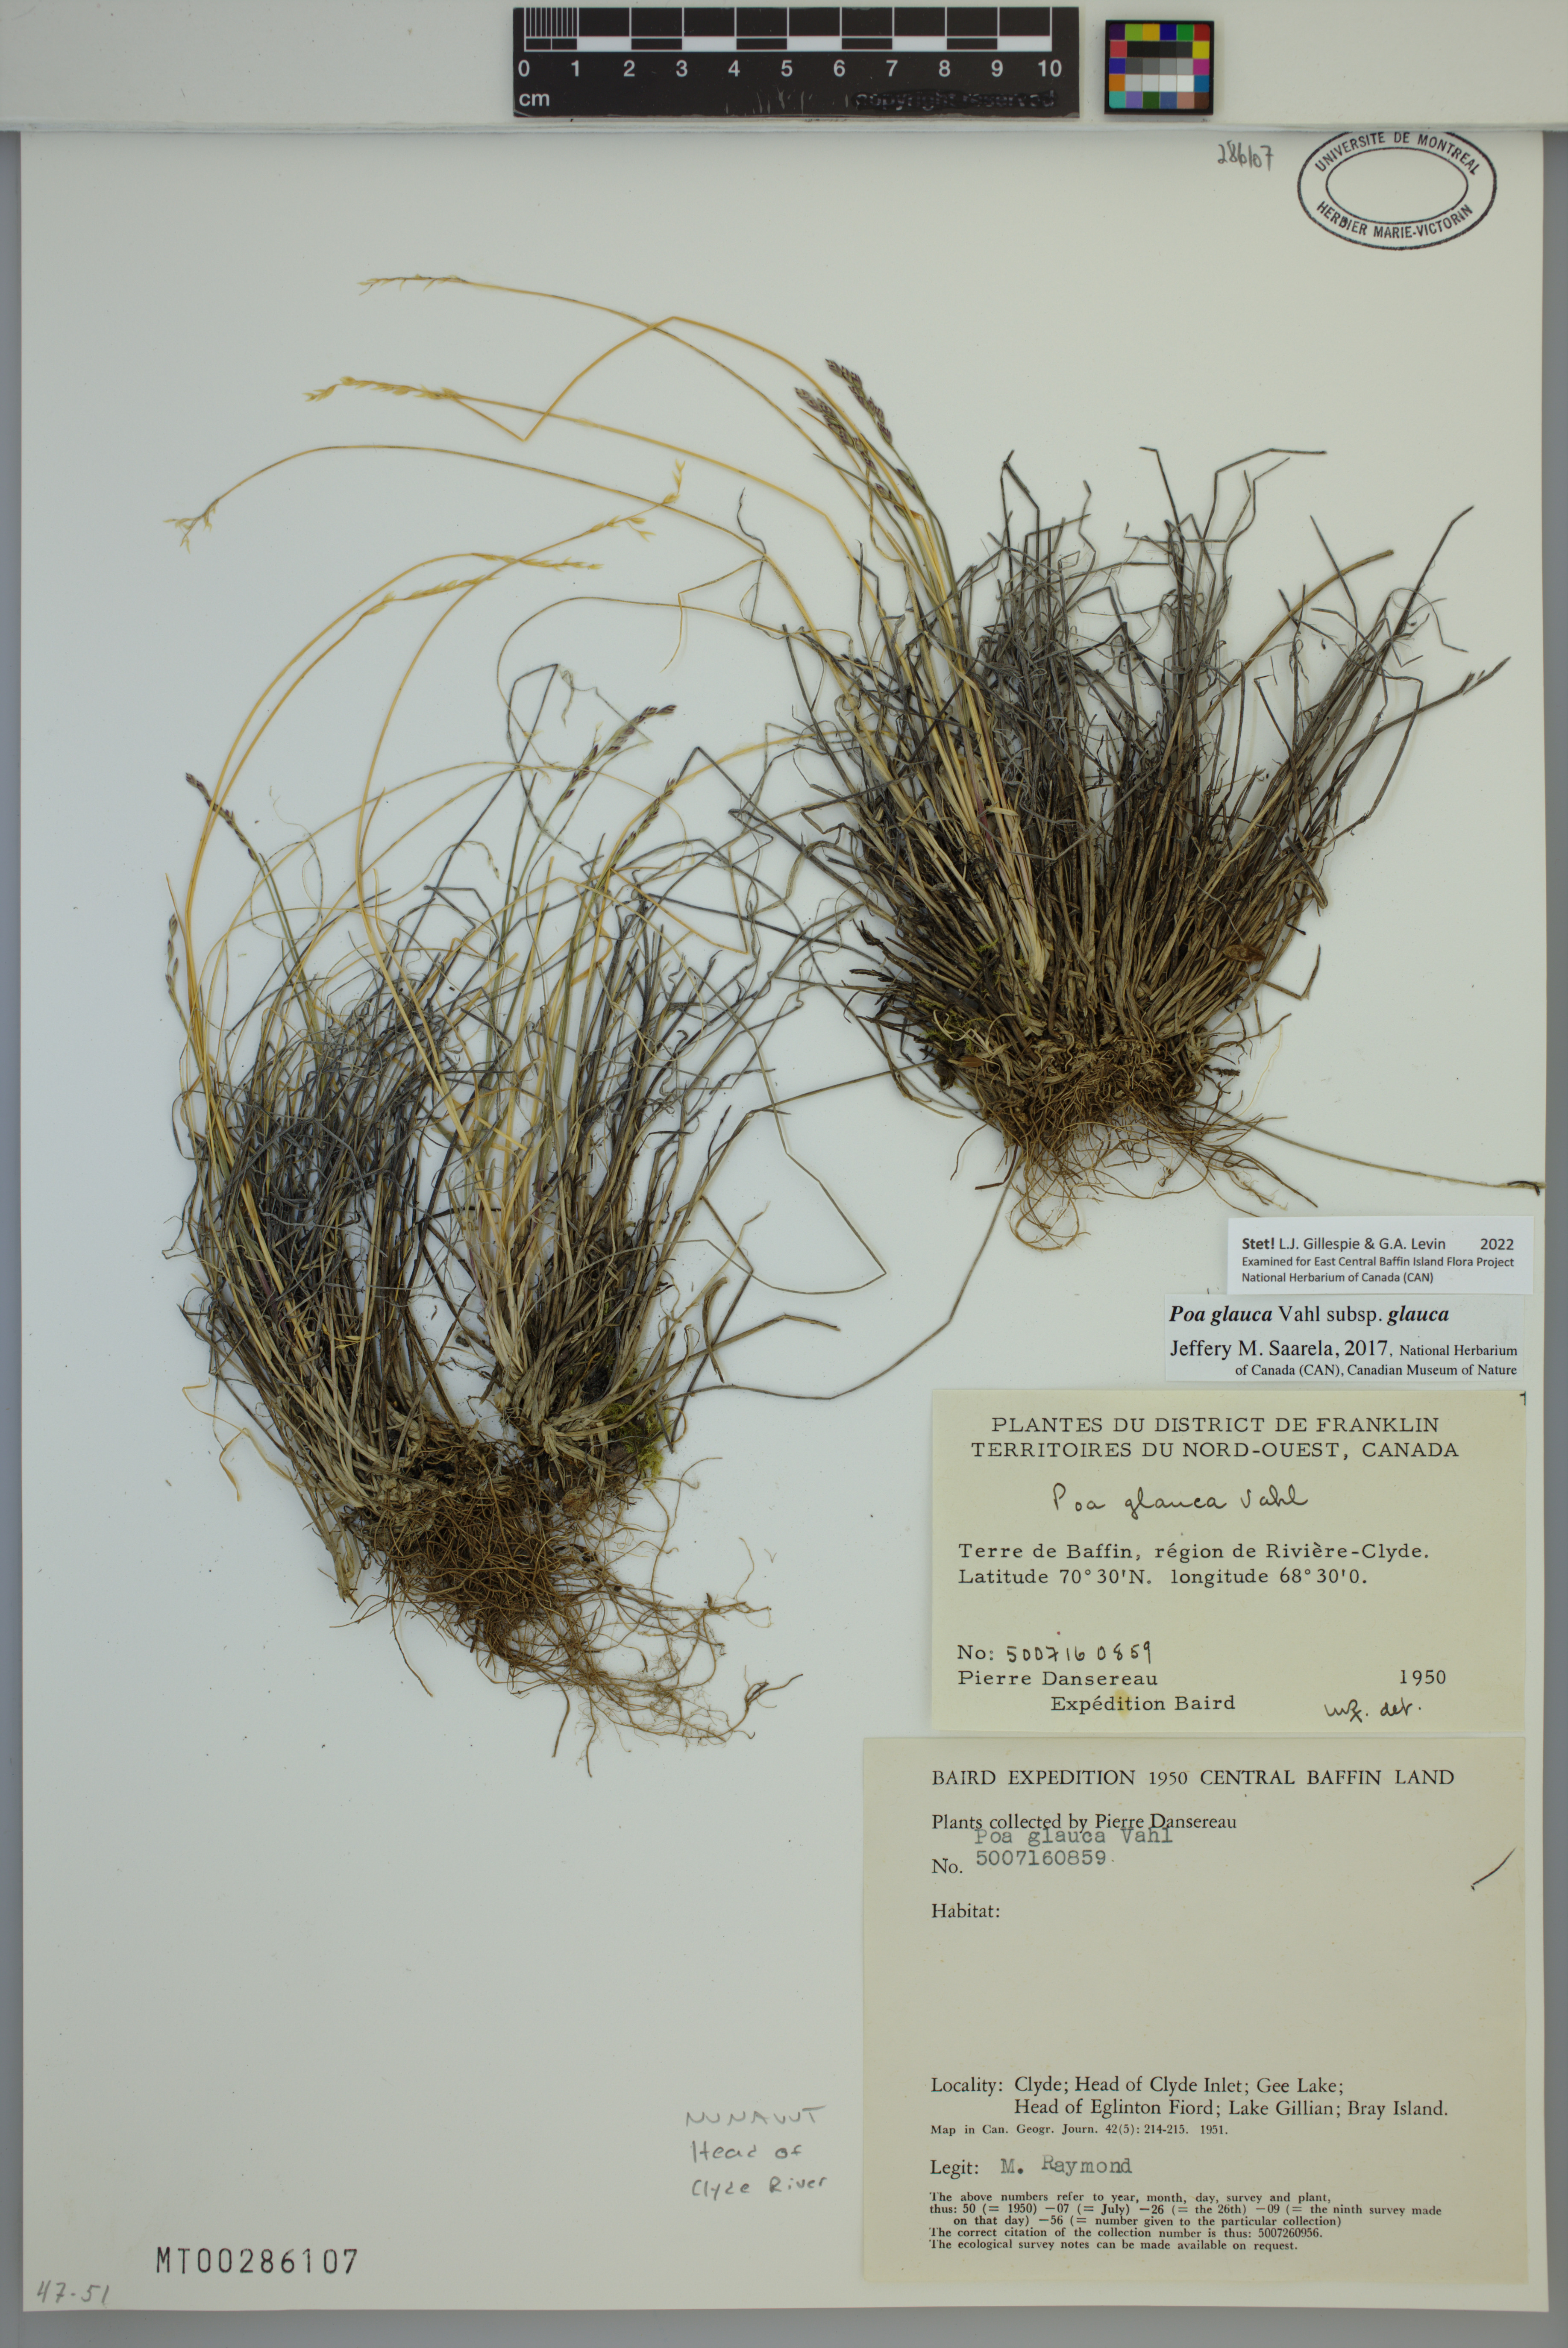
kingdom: Plantae
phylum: Tracheophyta
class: Liliopsida
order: Poales
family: Poaceae
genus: Poa
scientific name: Poa glauca
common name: Glaucous bluegrass
